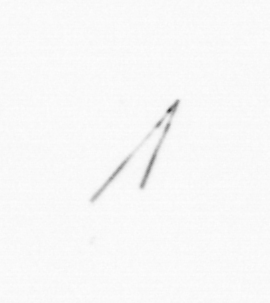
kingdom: Chromista
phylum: Ochrophyta
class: Bacillariophyceae
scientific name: Bacillariophyceae
